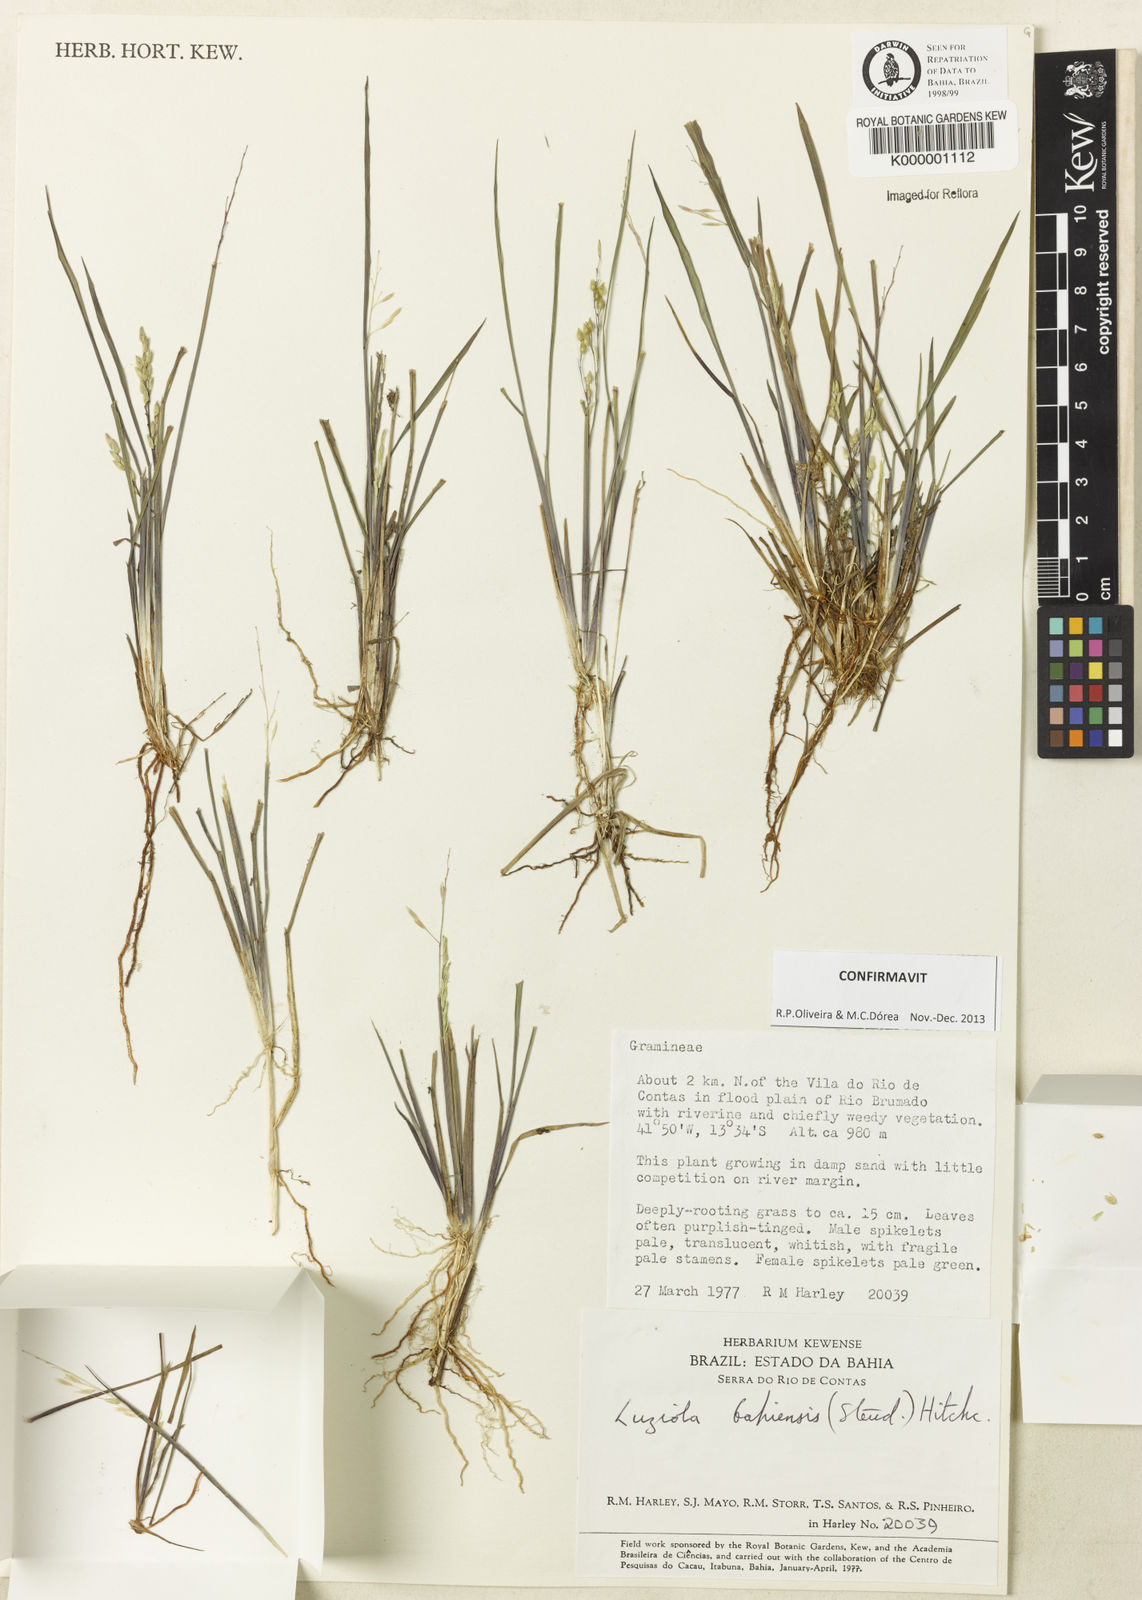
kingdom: Plantae
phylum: Tracheophyta
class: Liliopsida
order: Poales
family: Poaceae
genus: Luziola
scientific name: Luziola bahiensis
